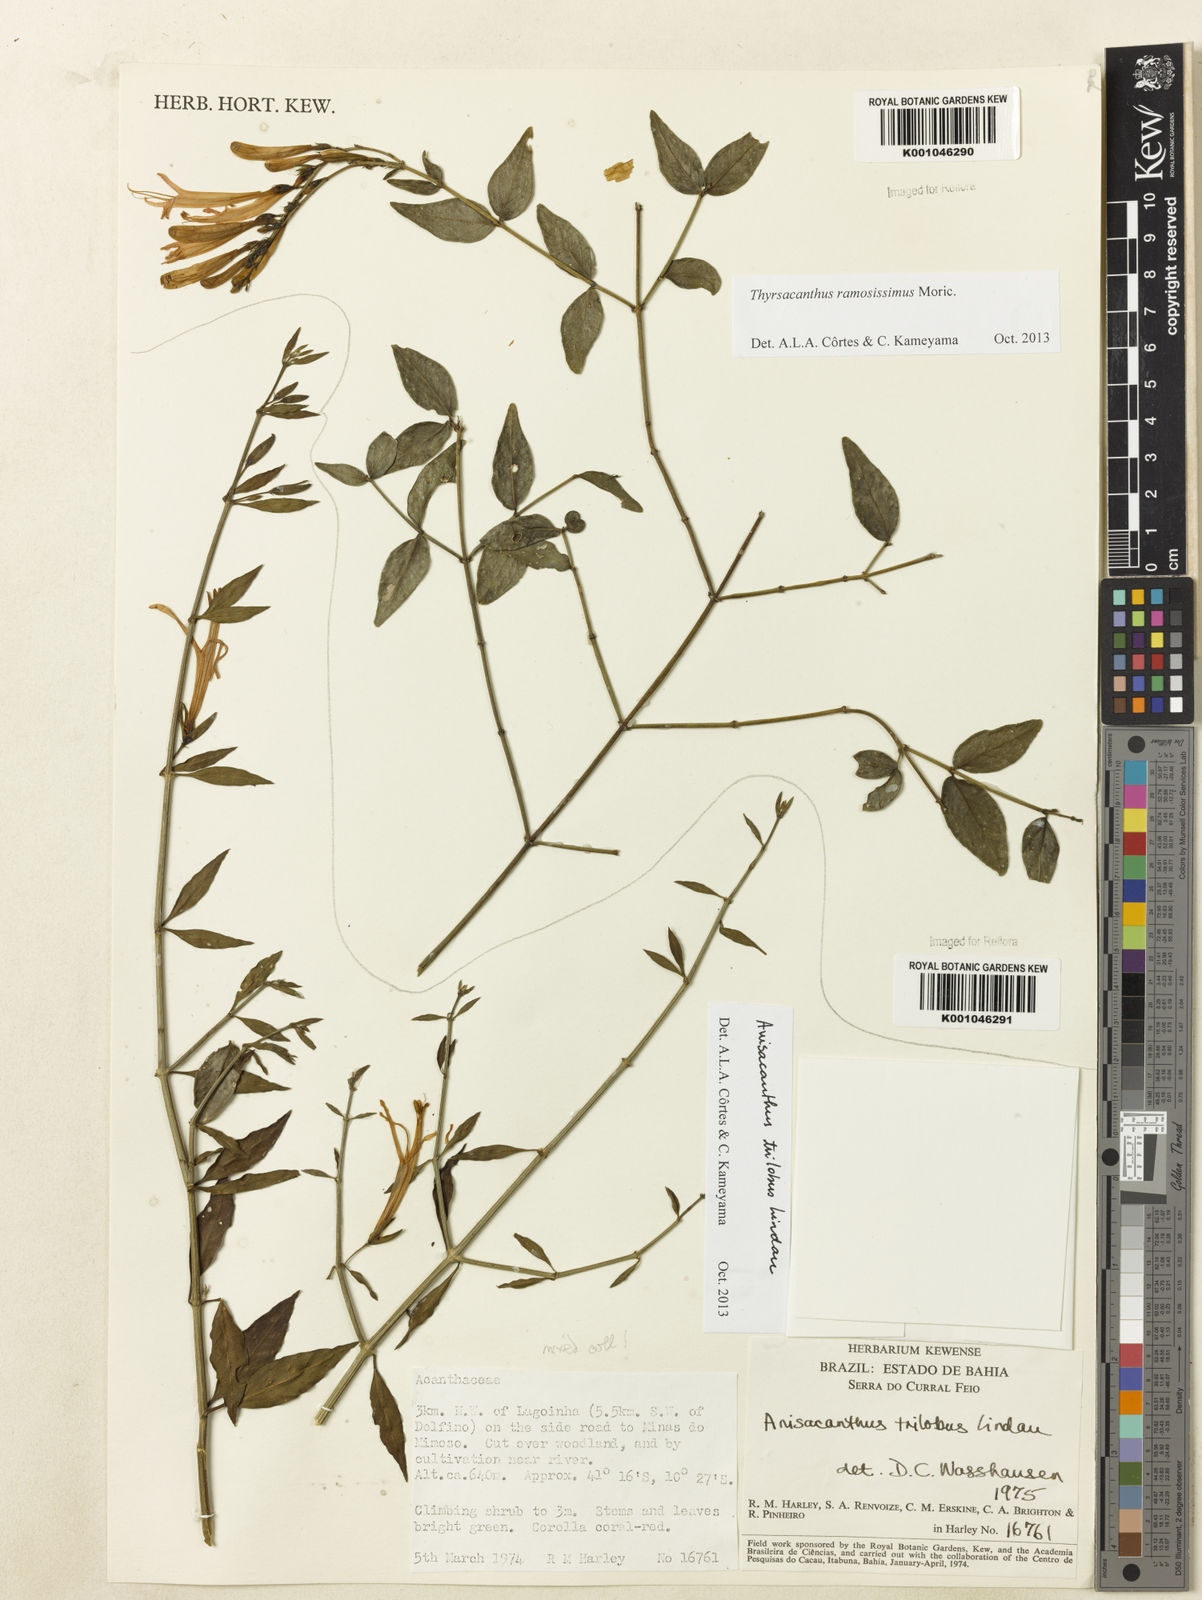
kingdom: Plantae
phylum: Tracheophyta
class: Magnoliopsida
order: Lamiales
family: Acanthaceae
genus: Justicia
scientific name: Justicia triloba
